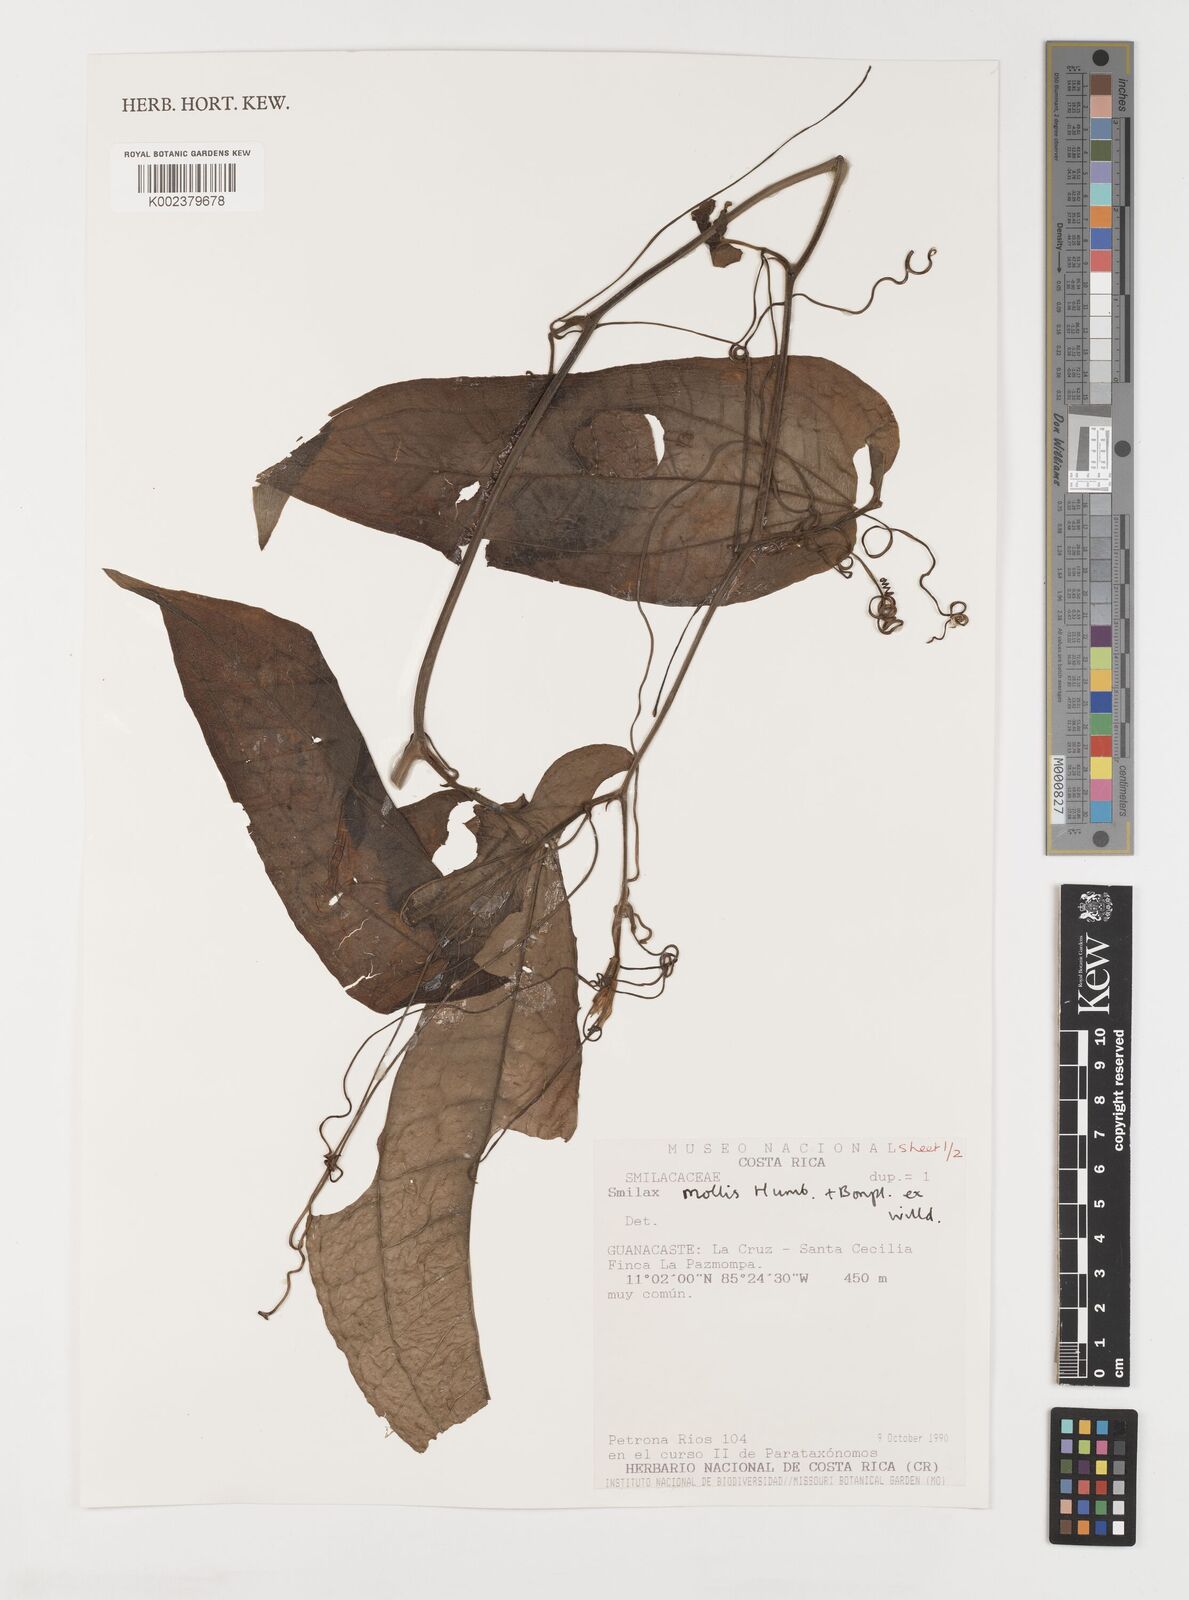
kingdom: Plantae
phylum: Tracheophyta
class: Liliopsida
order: Liliales
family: Smilacaceae
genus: Smilax
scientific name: Smilax mollis
